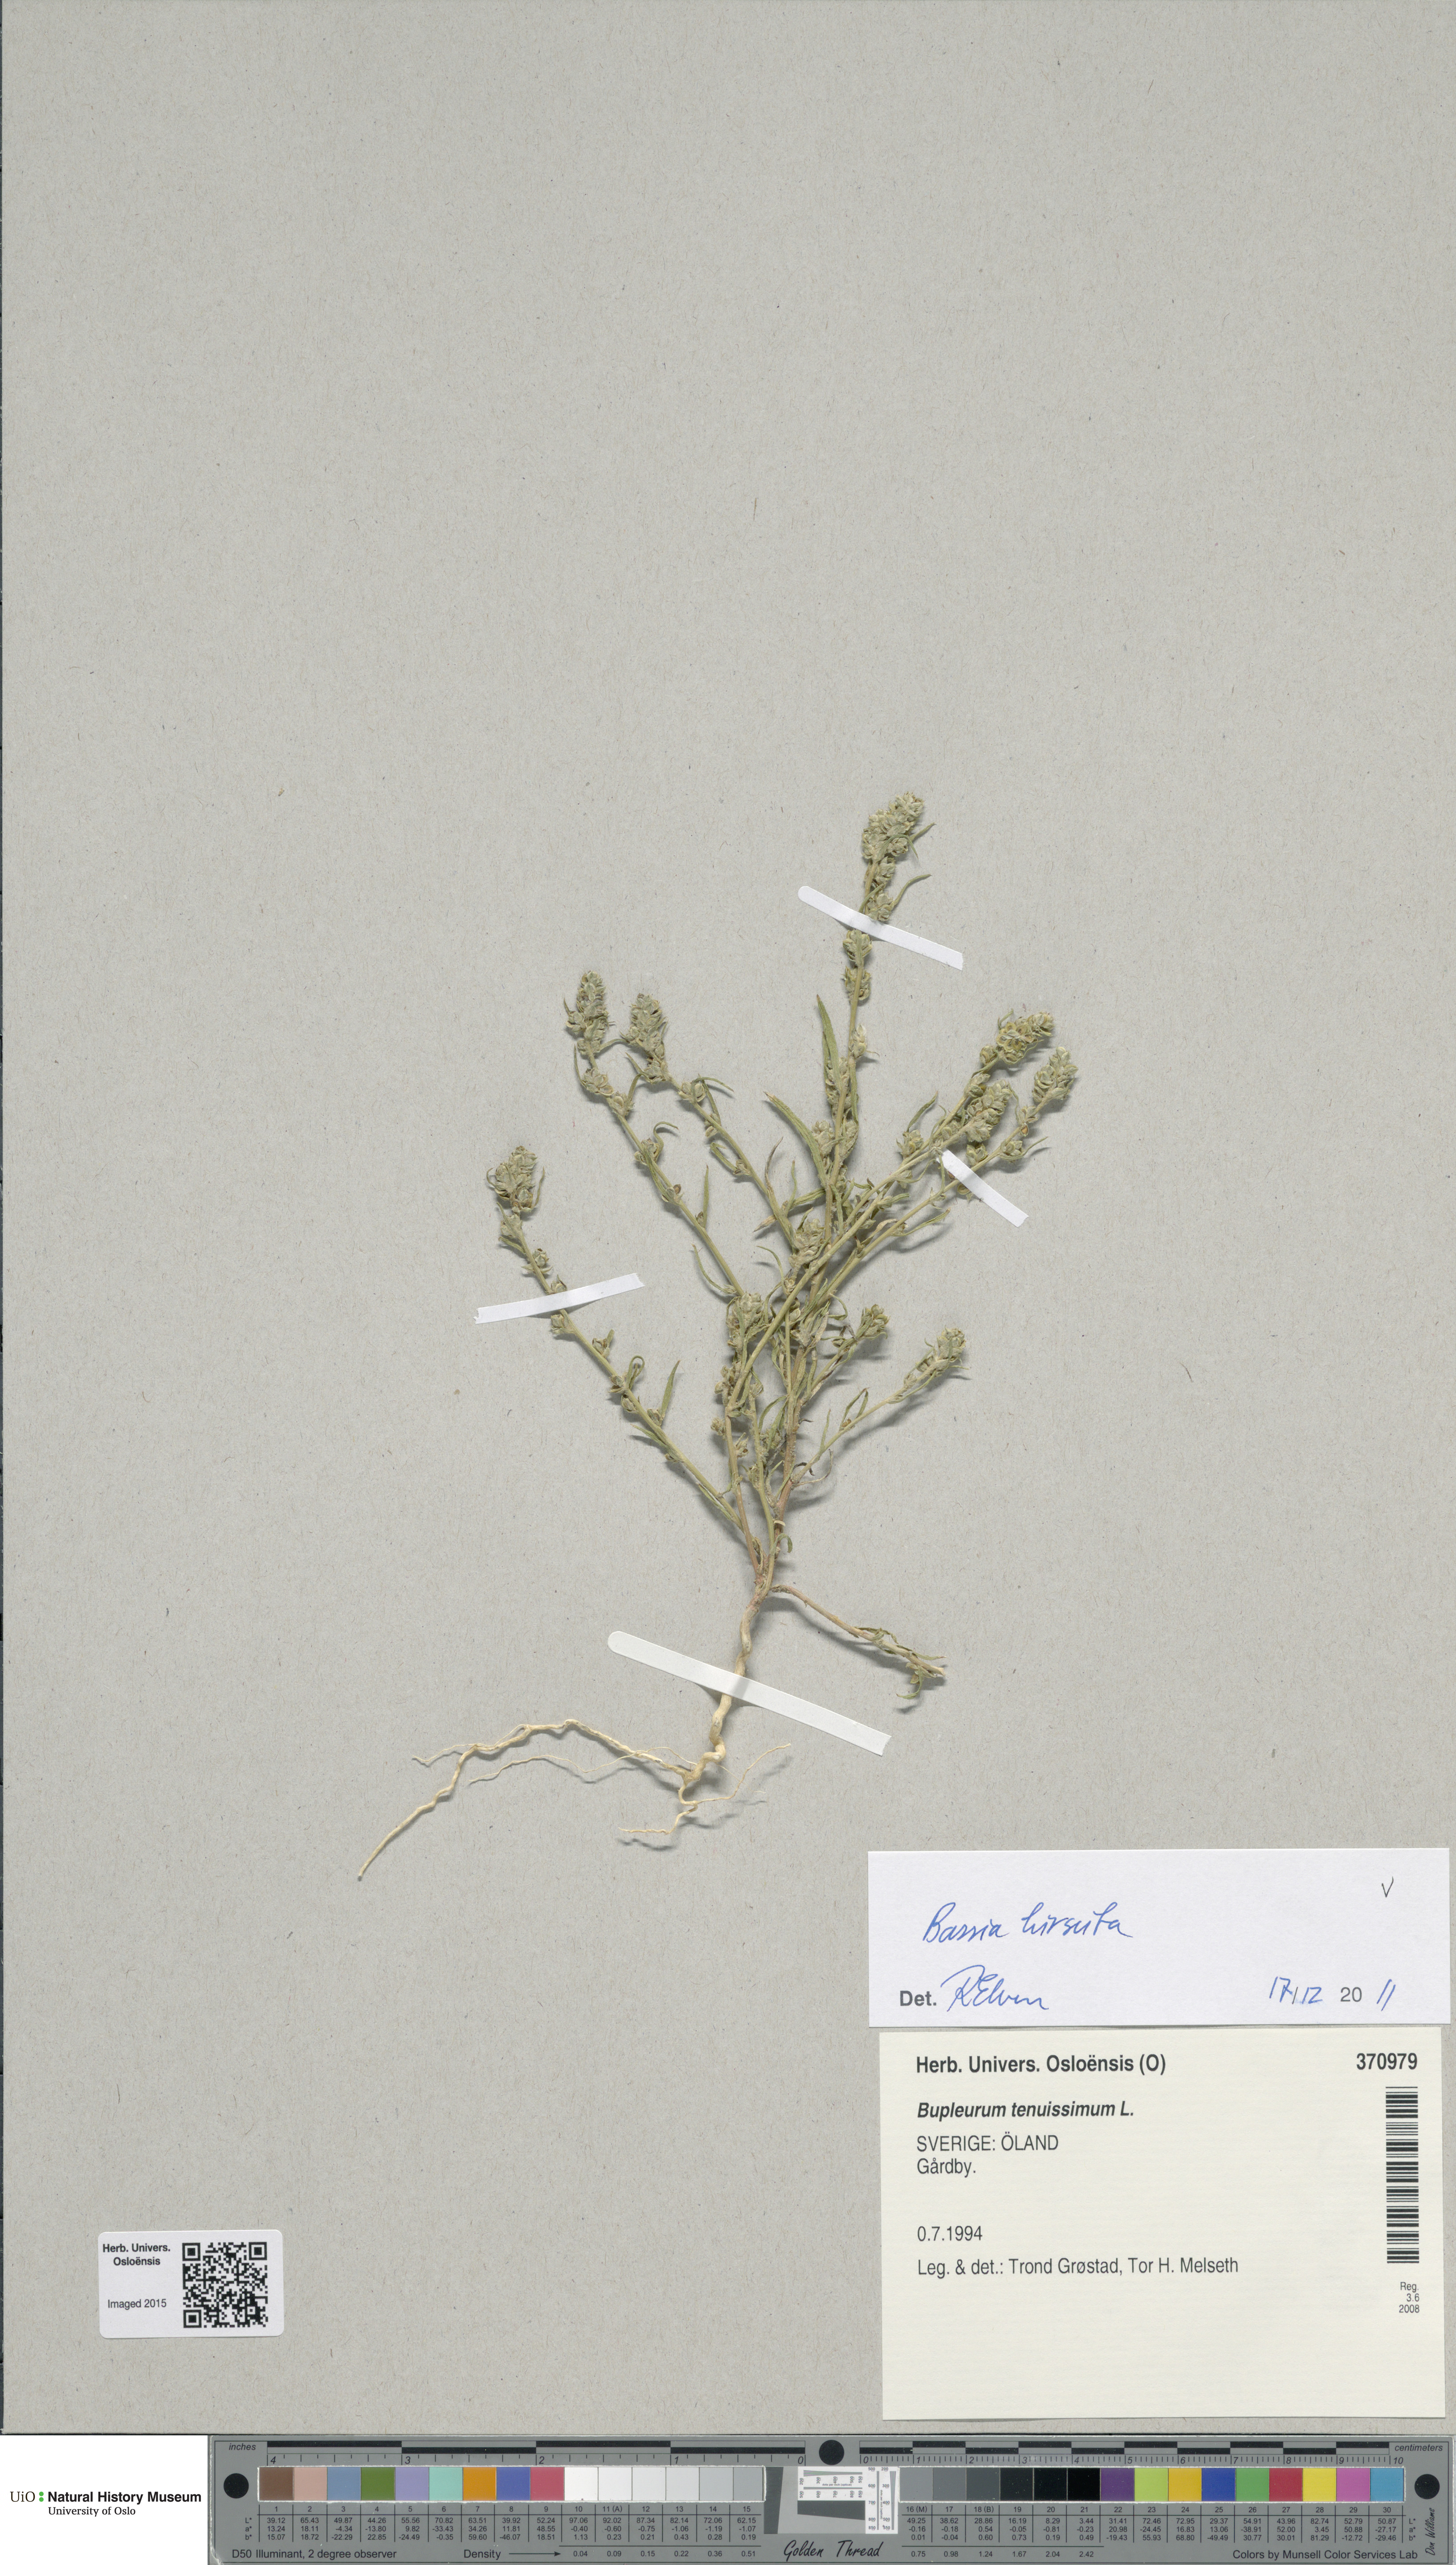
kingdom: Plantae
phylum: Tracheophyta
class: Magnoliopsida
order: Caryophyllales
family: Amaranthaceae
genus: Corispermum
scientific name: Corispermum pallasii
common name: Siberian bugseed
